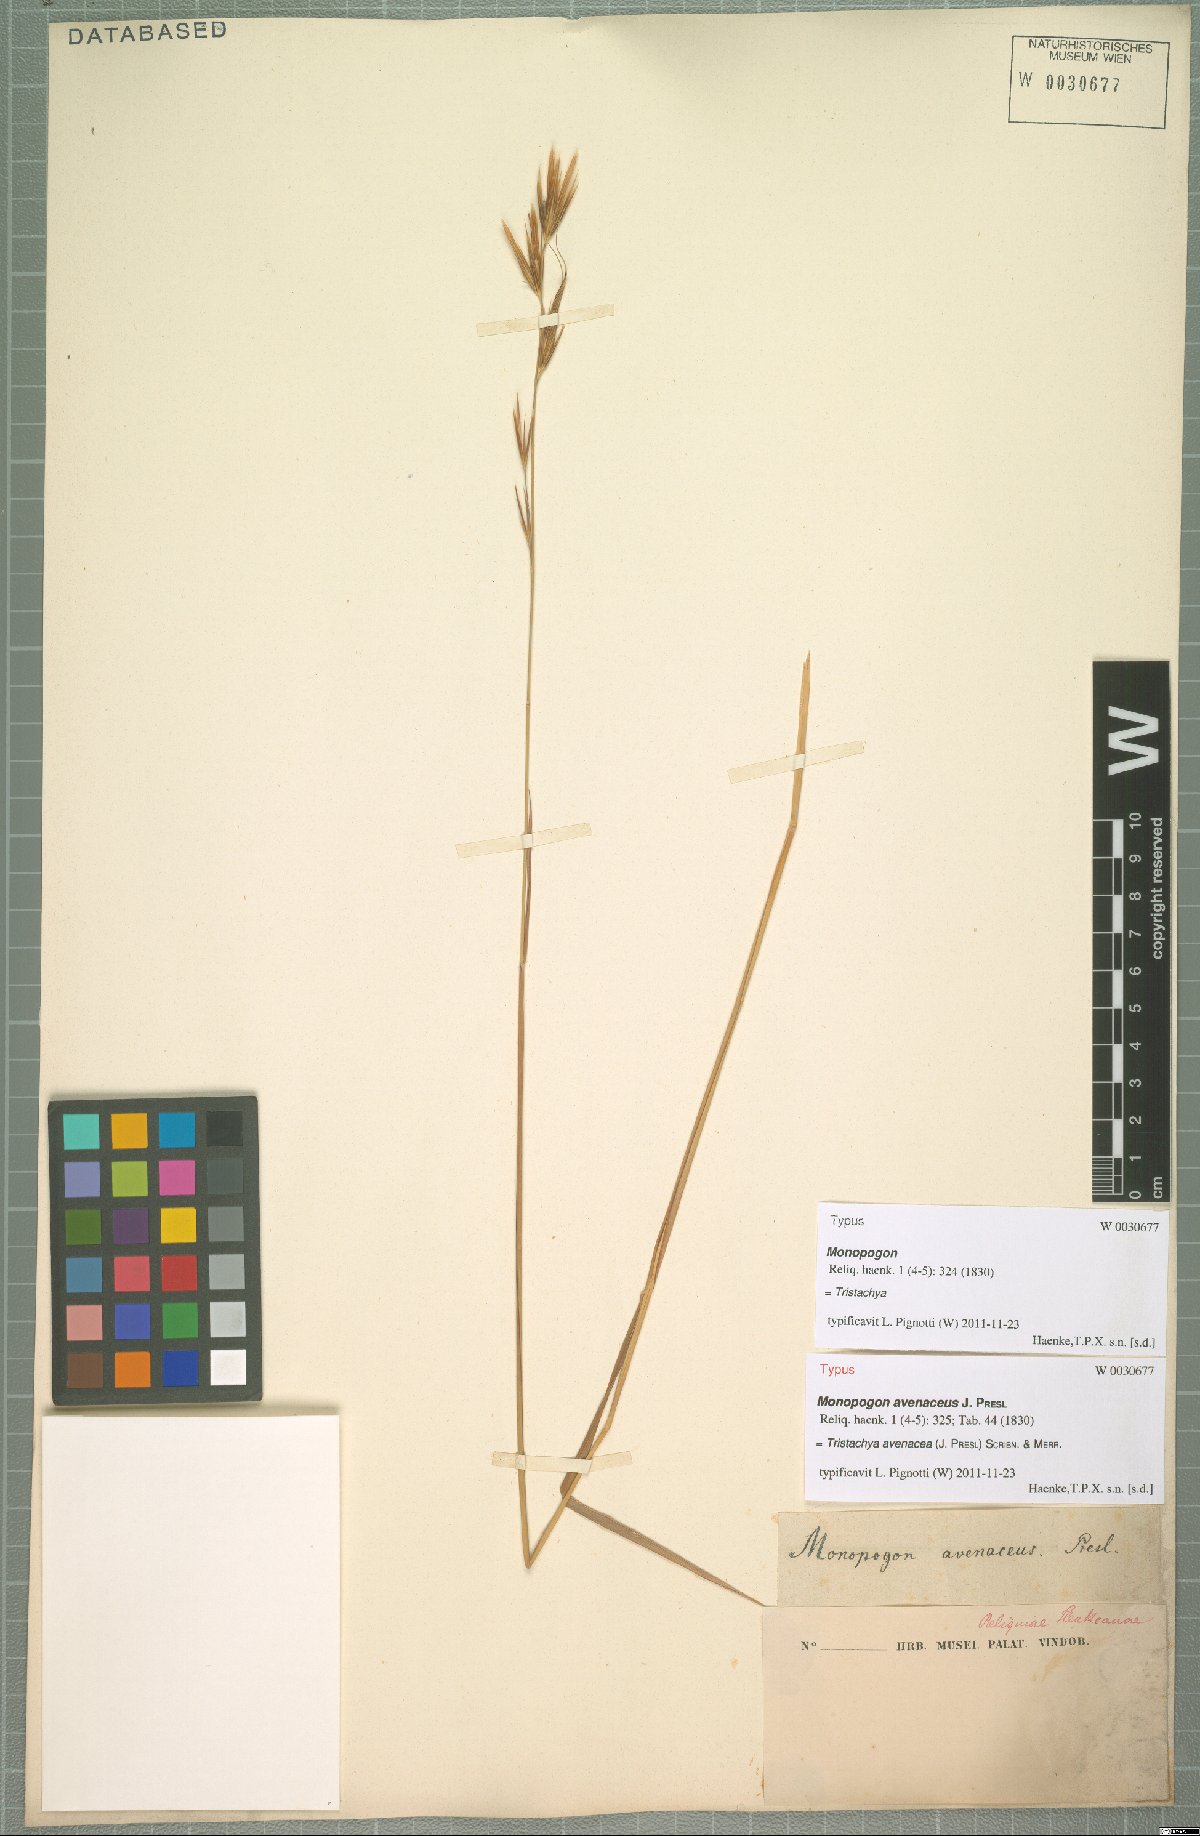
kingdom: Plantae
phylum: Tracheophyta
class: Liliopsida
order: Poales
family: Poaceae
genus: Tristachya
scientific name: Tristachya avenacea
